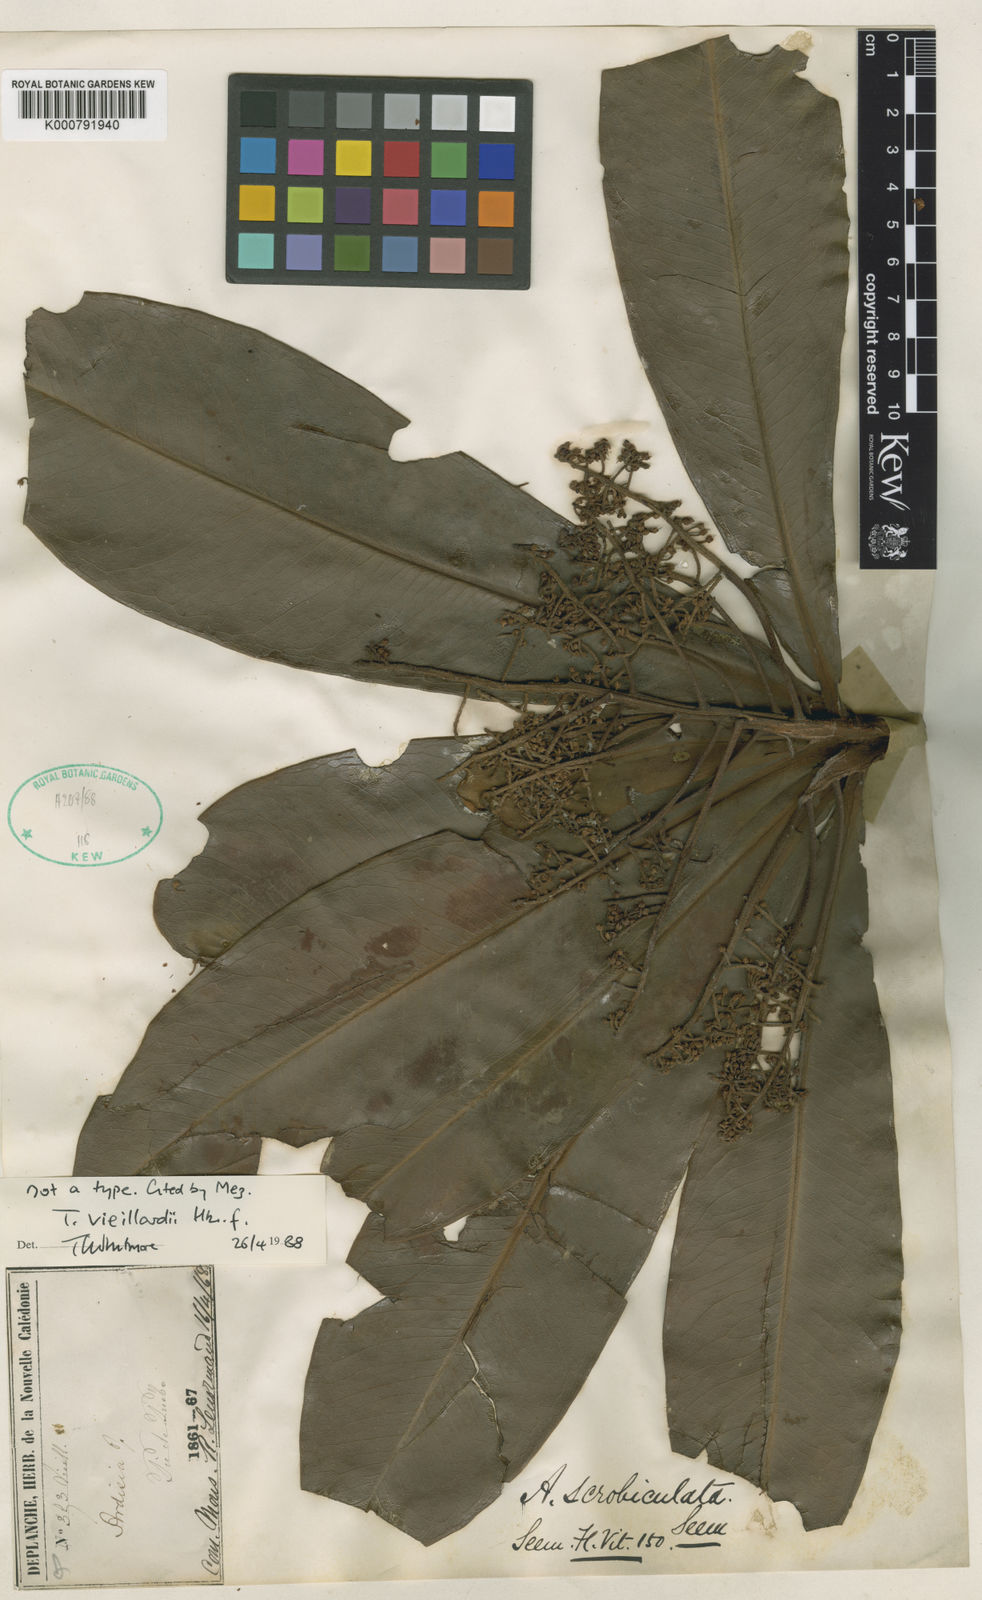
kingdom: Plantae
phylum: Tracheophyta
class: Magnoliopsida
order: Ericales
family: Primulaceae
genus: Tapeinosperma
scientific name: Tapeinosperma vieillardii
